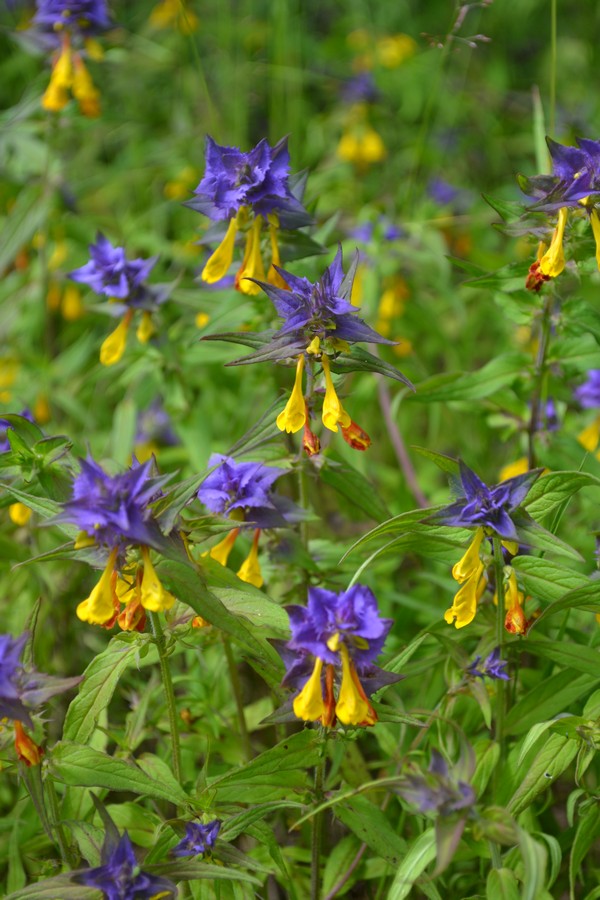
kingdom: Plantae
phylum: Tracheophyta
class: Magnoliopsida
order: Lamiales
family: Orobanchaceae
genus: Melampyrum
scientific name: Melampyrum nemorosum
